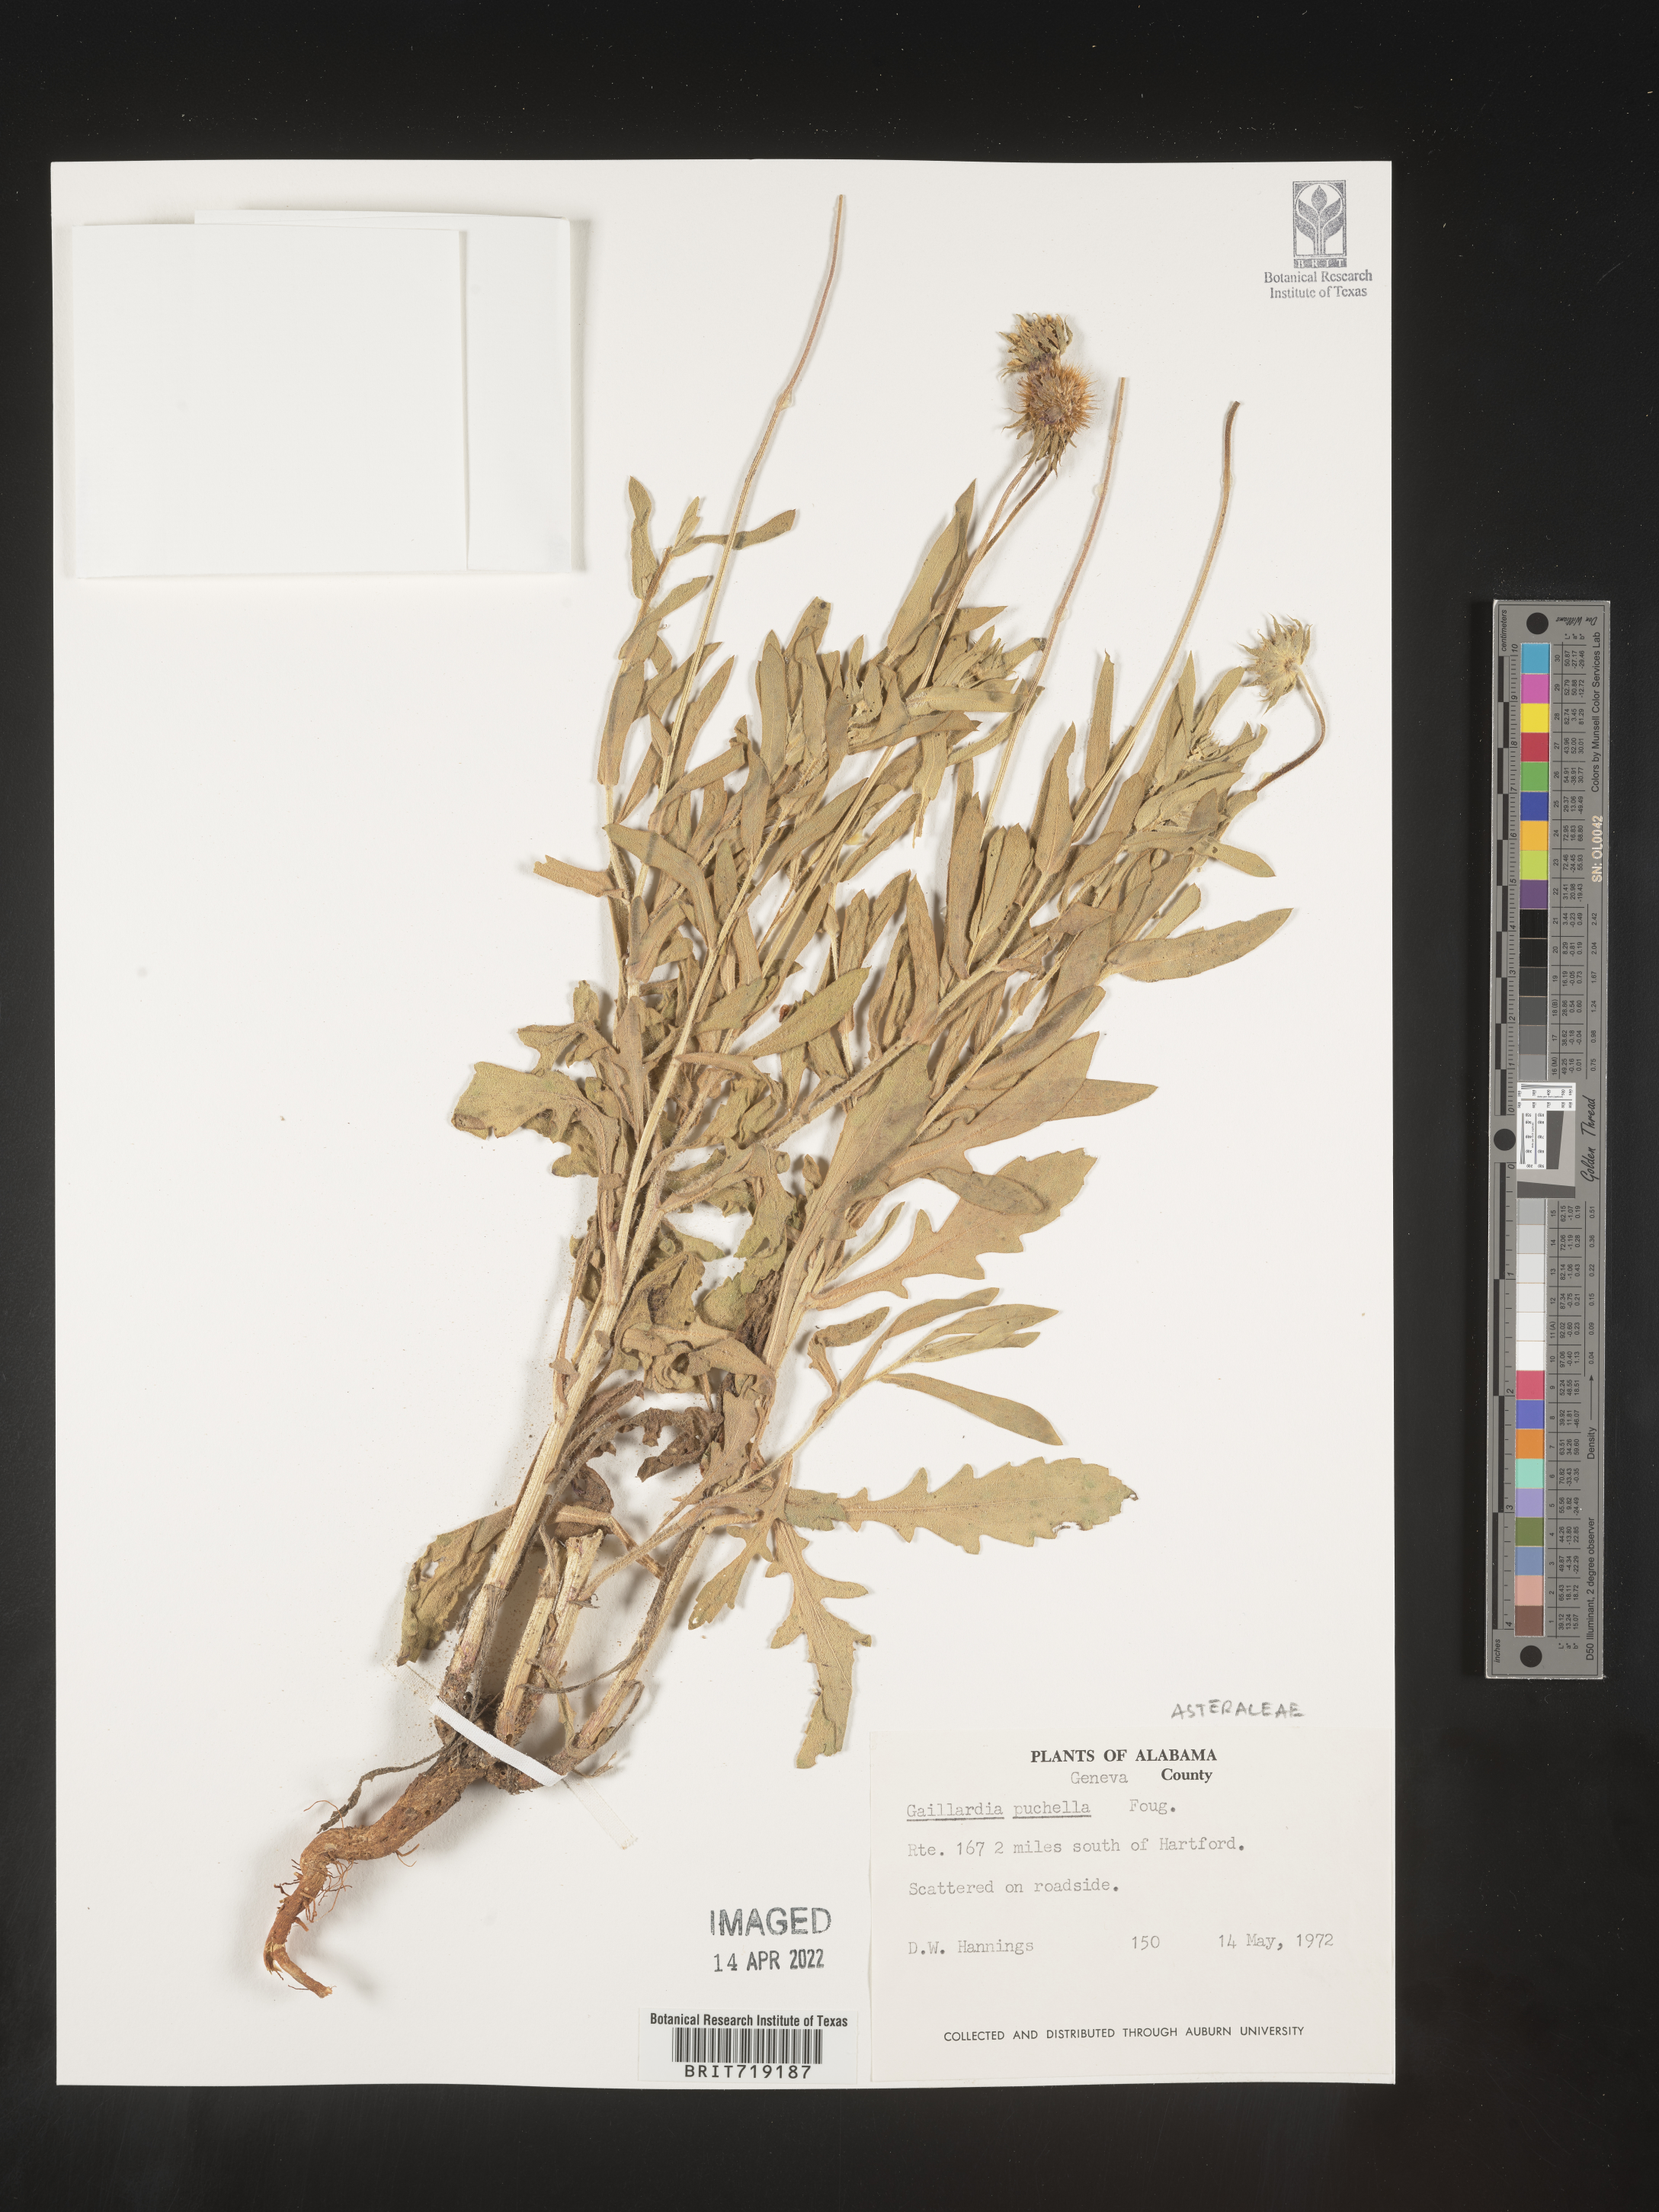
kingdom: Plantae
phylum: Tracheophyta
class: Magnoliopsida
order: Asterales
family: Asteraceae
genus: Gaillardia
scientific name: Gaillardia pulchella
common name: Firewheel
